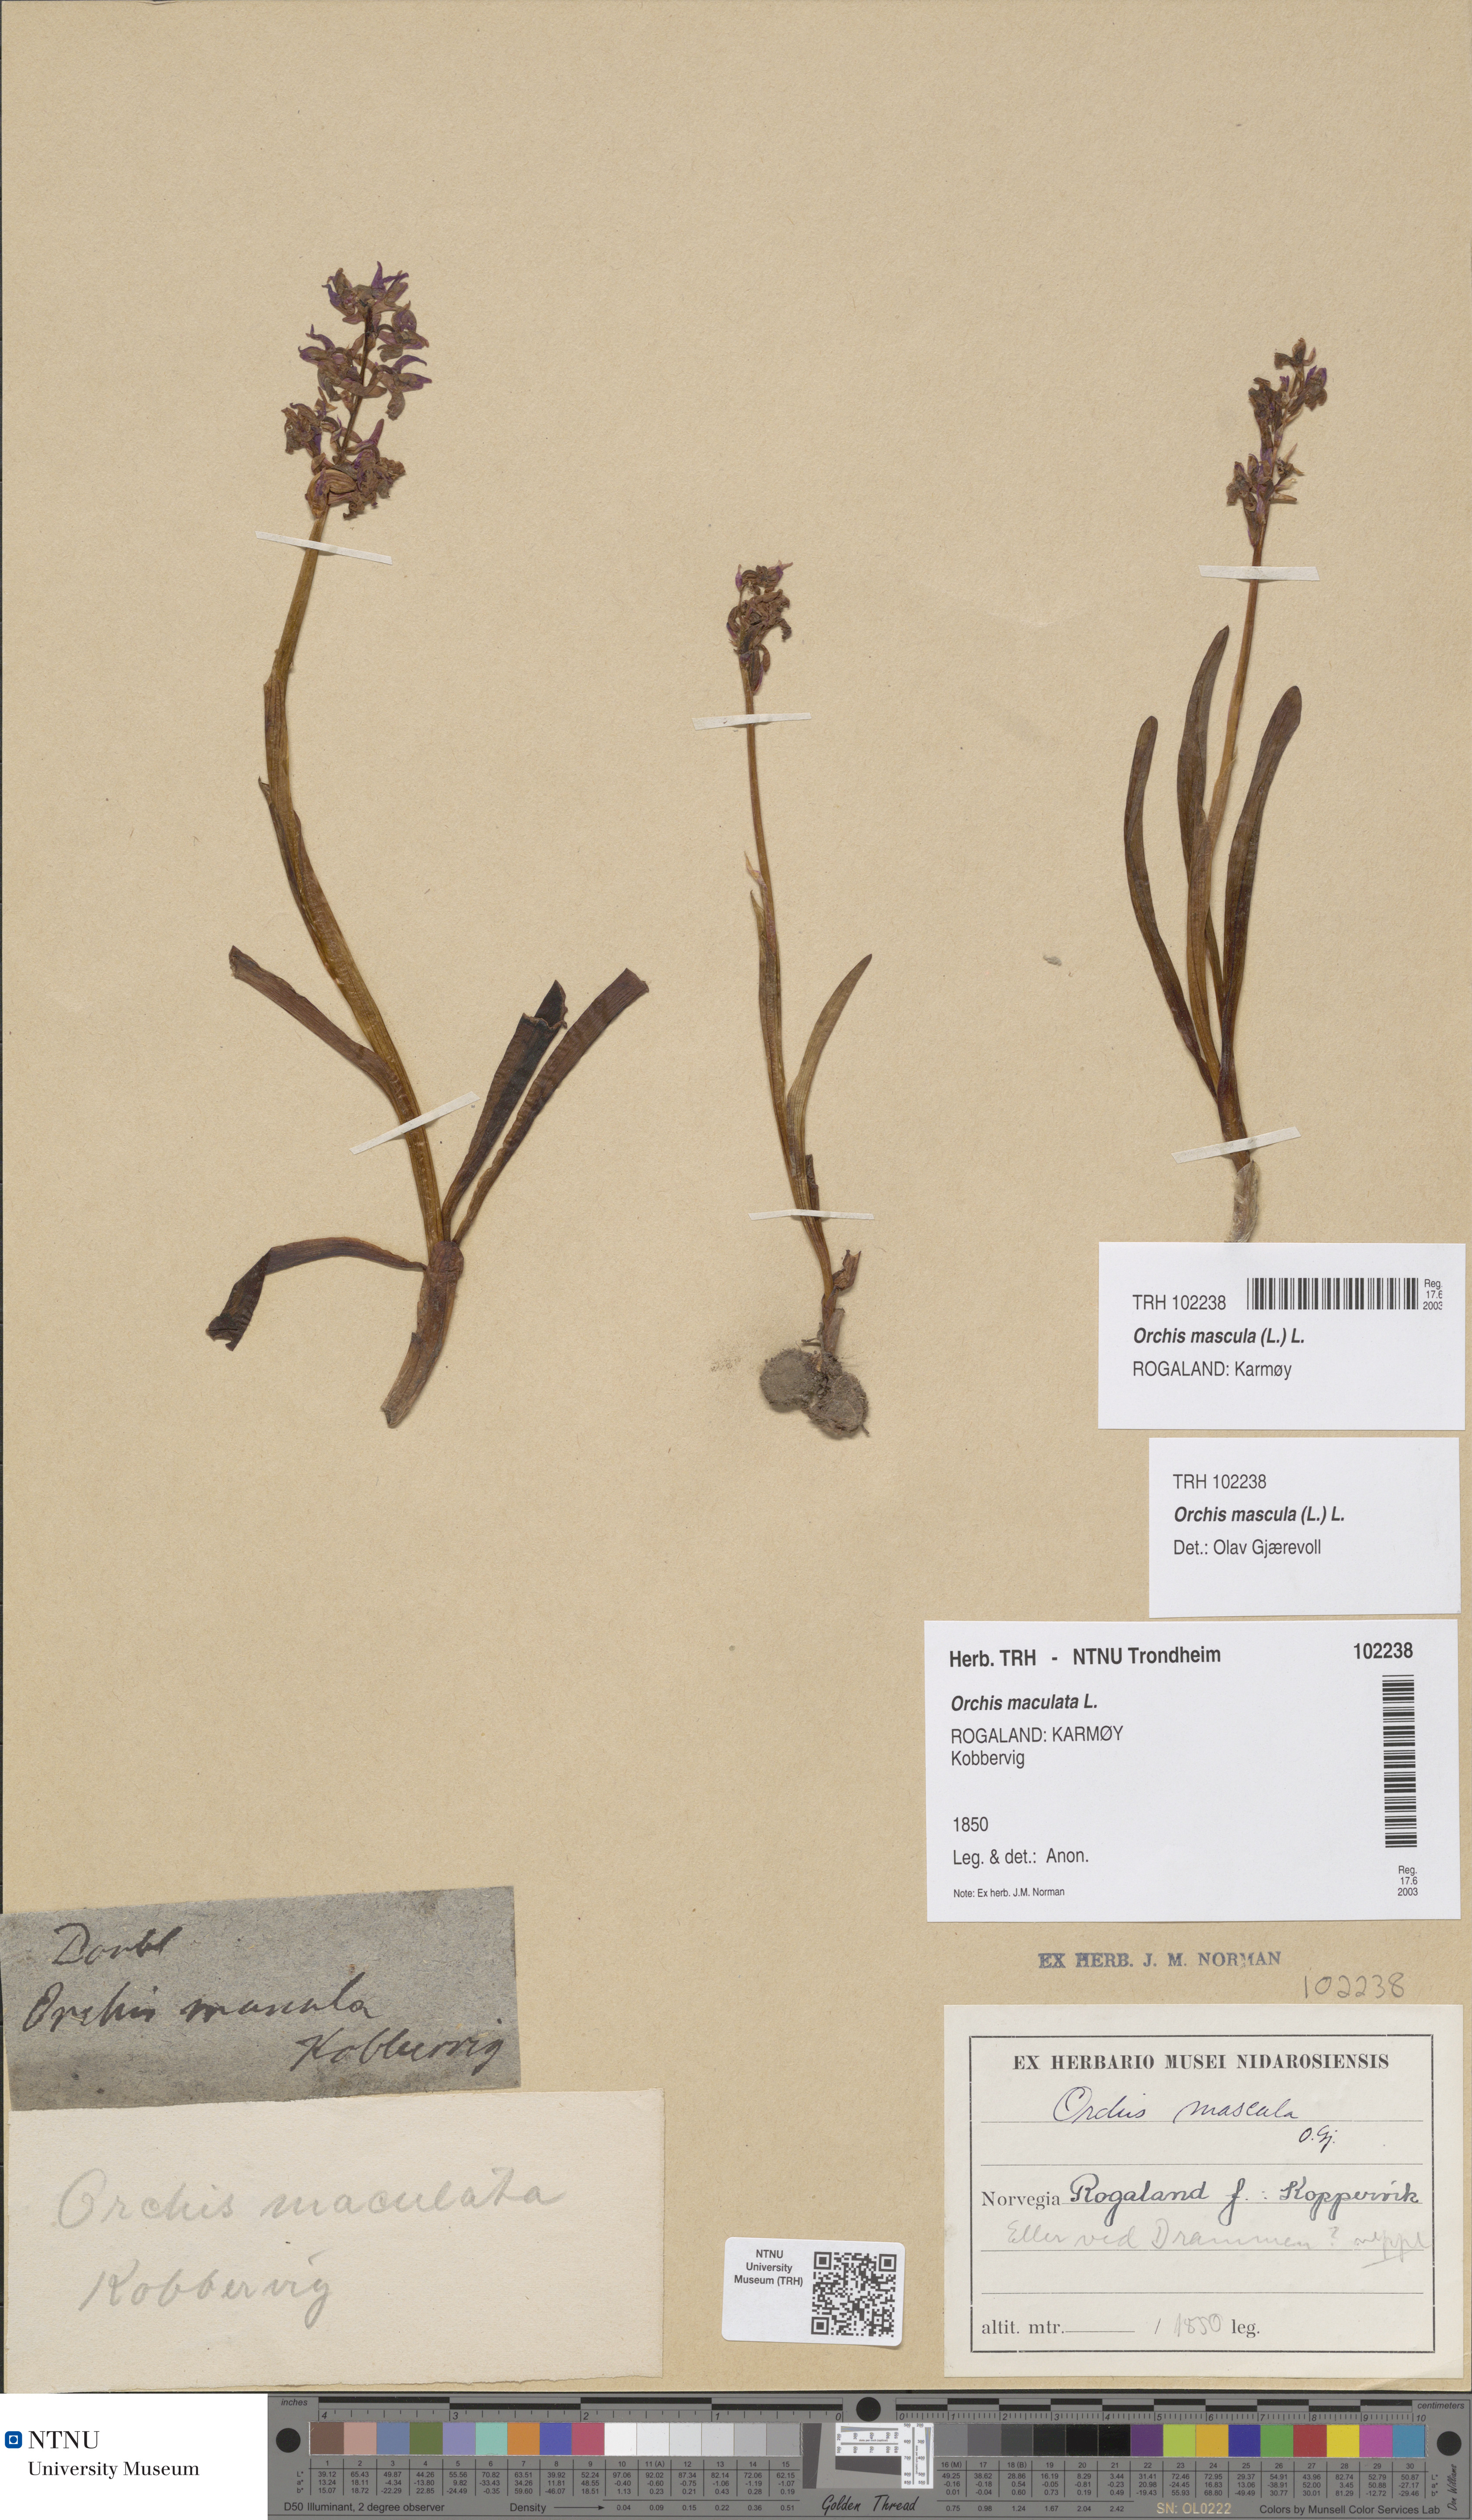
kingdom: Plantae
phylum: Tracheophyta
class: Liliopsida
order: Asparagales
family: Orchidaceae
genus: Orchis
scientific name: Orchis mascula
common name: Early-purple orchid
